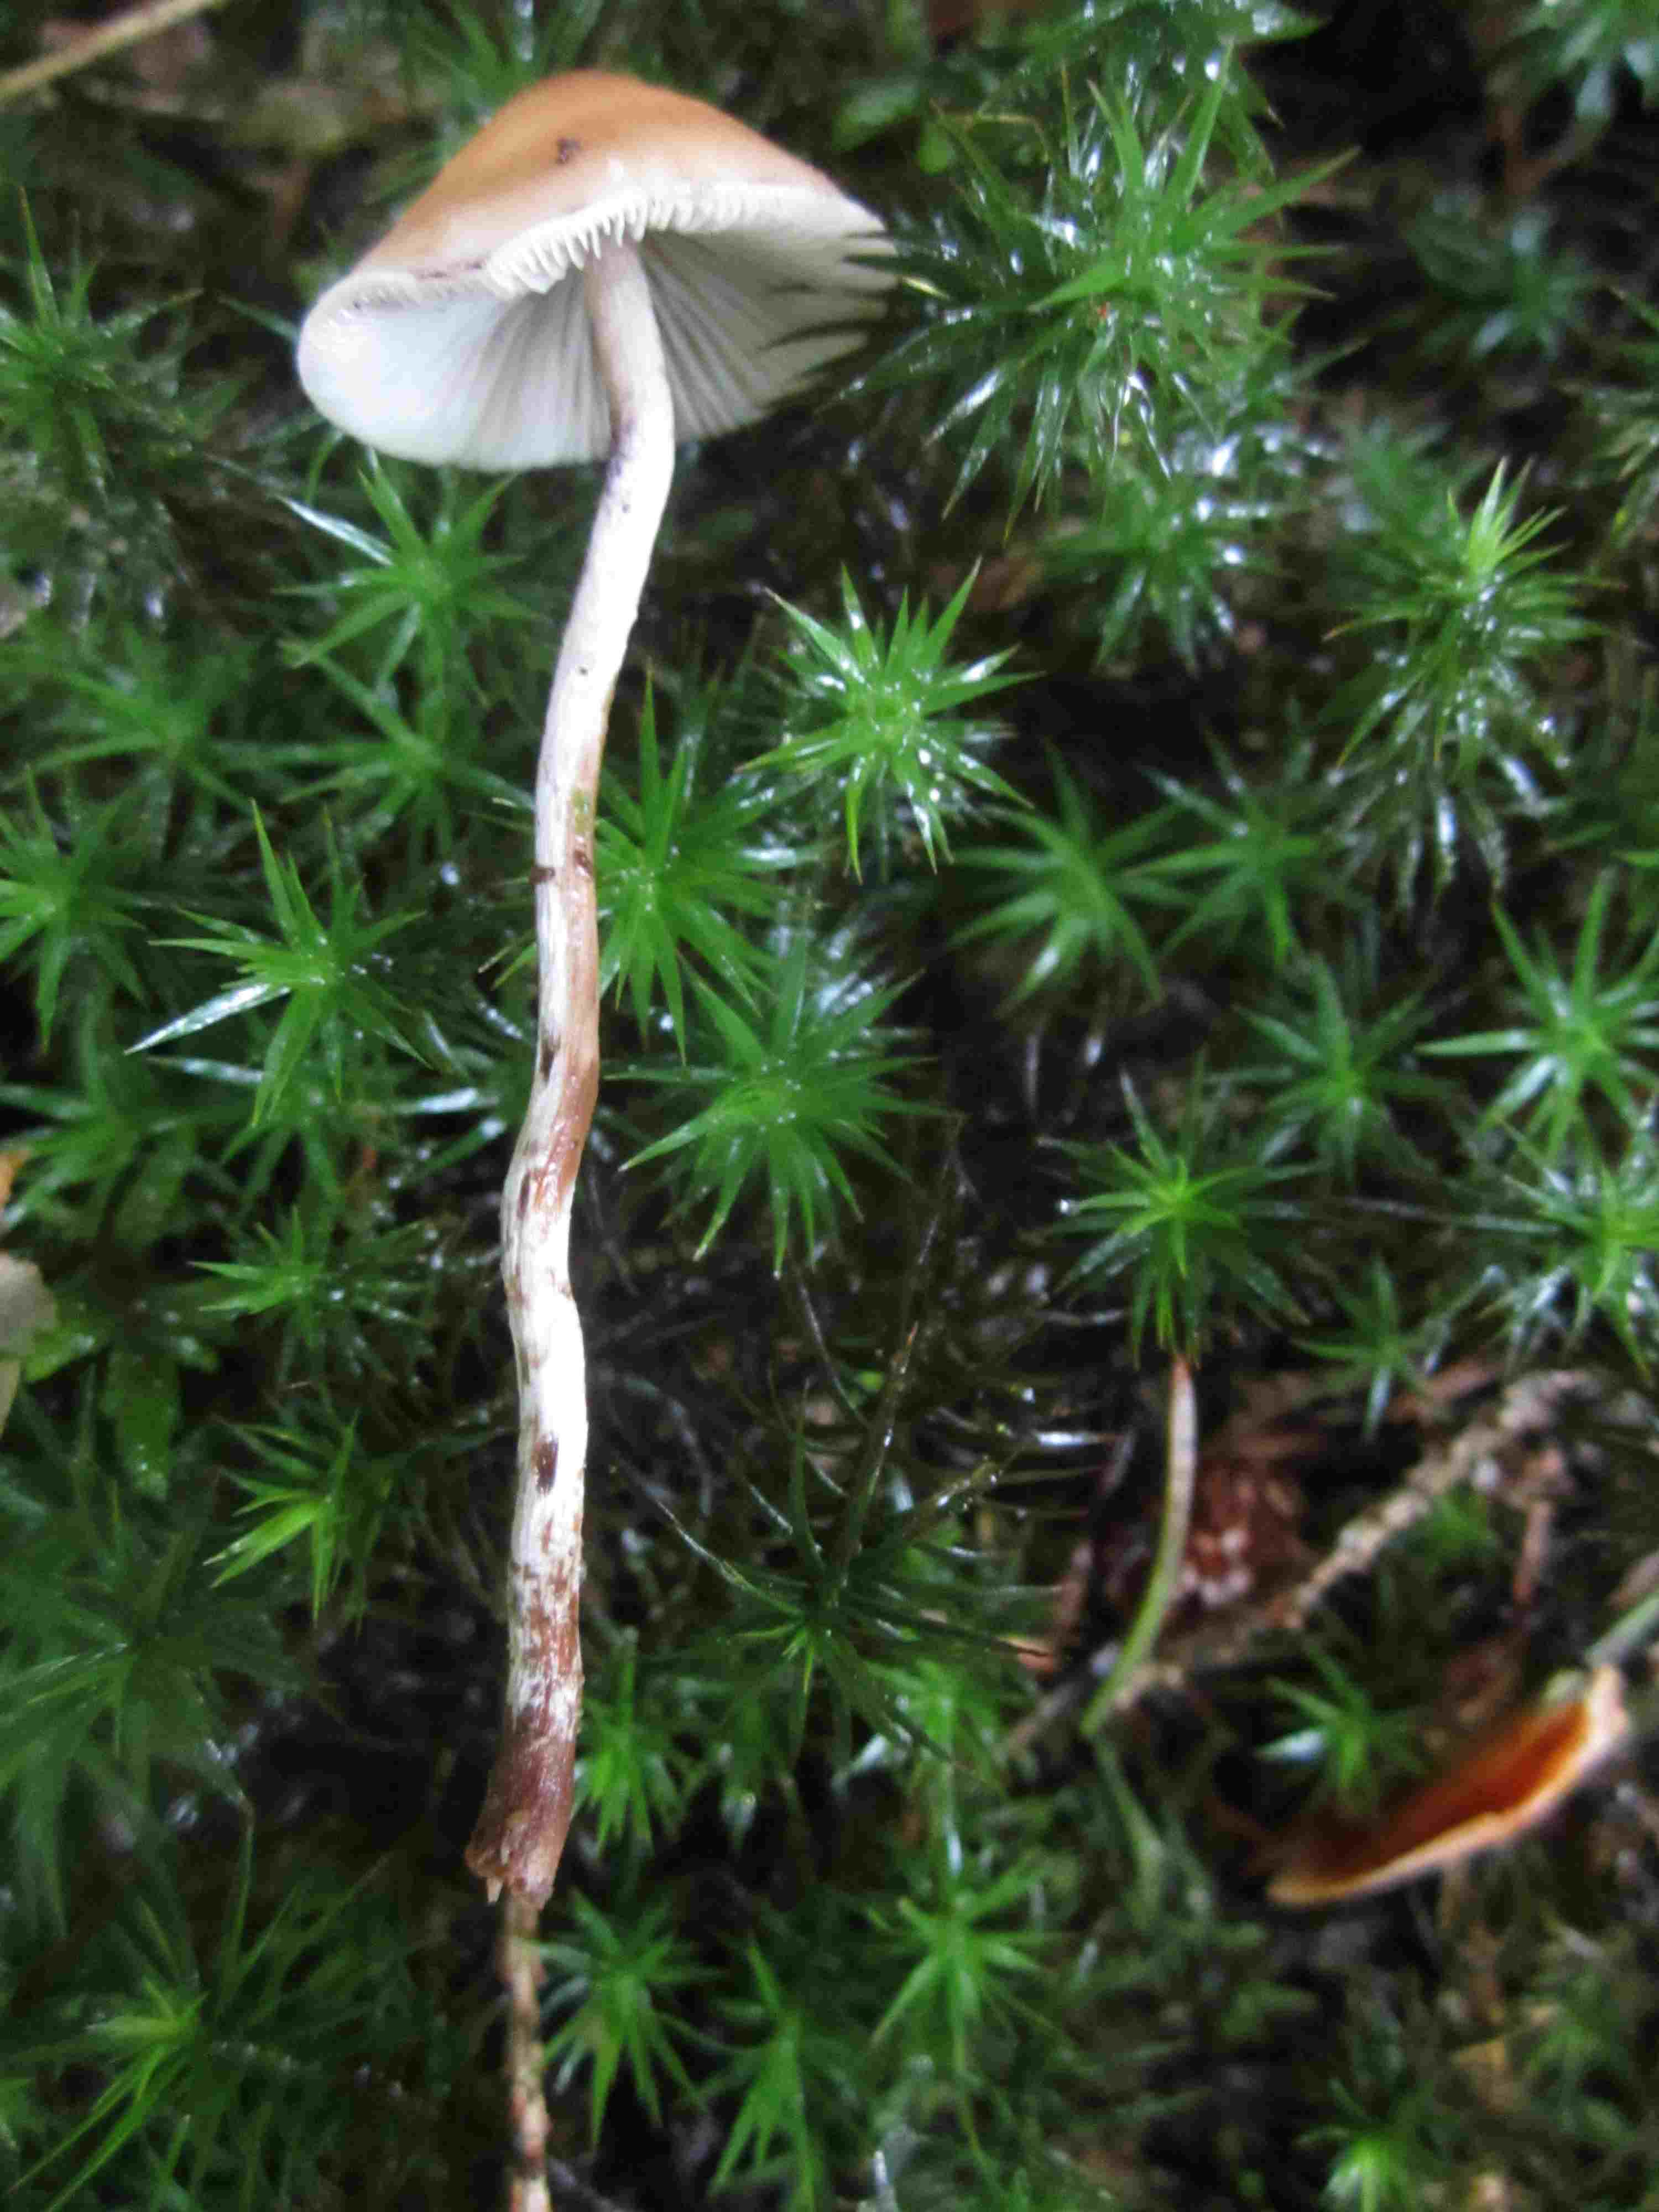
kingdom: Fungi
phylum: Basidiomycota
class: Agaricomycetes
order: Agaricales
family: Strophariaceae
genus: Hypholoma
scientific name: Hypholoma marginatum
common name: enlig svovlhat
